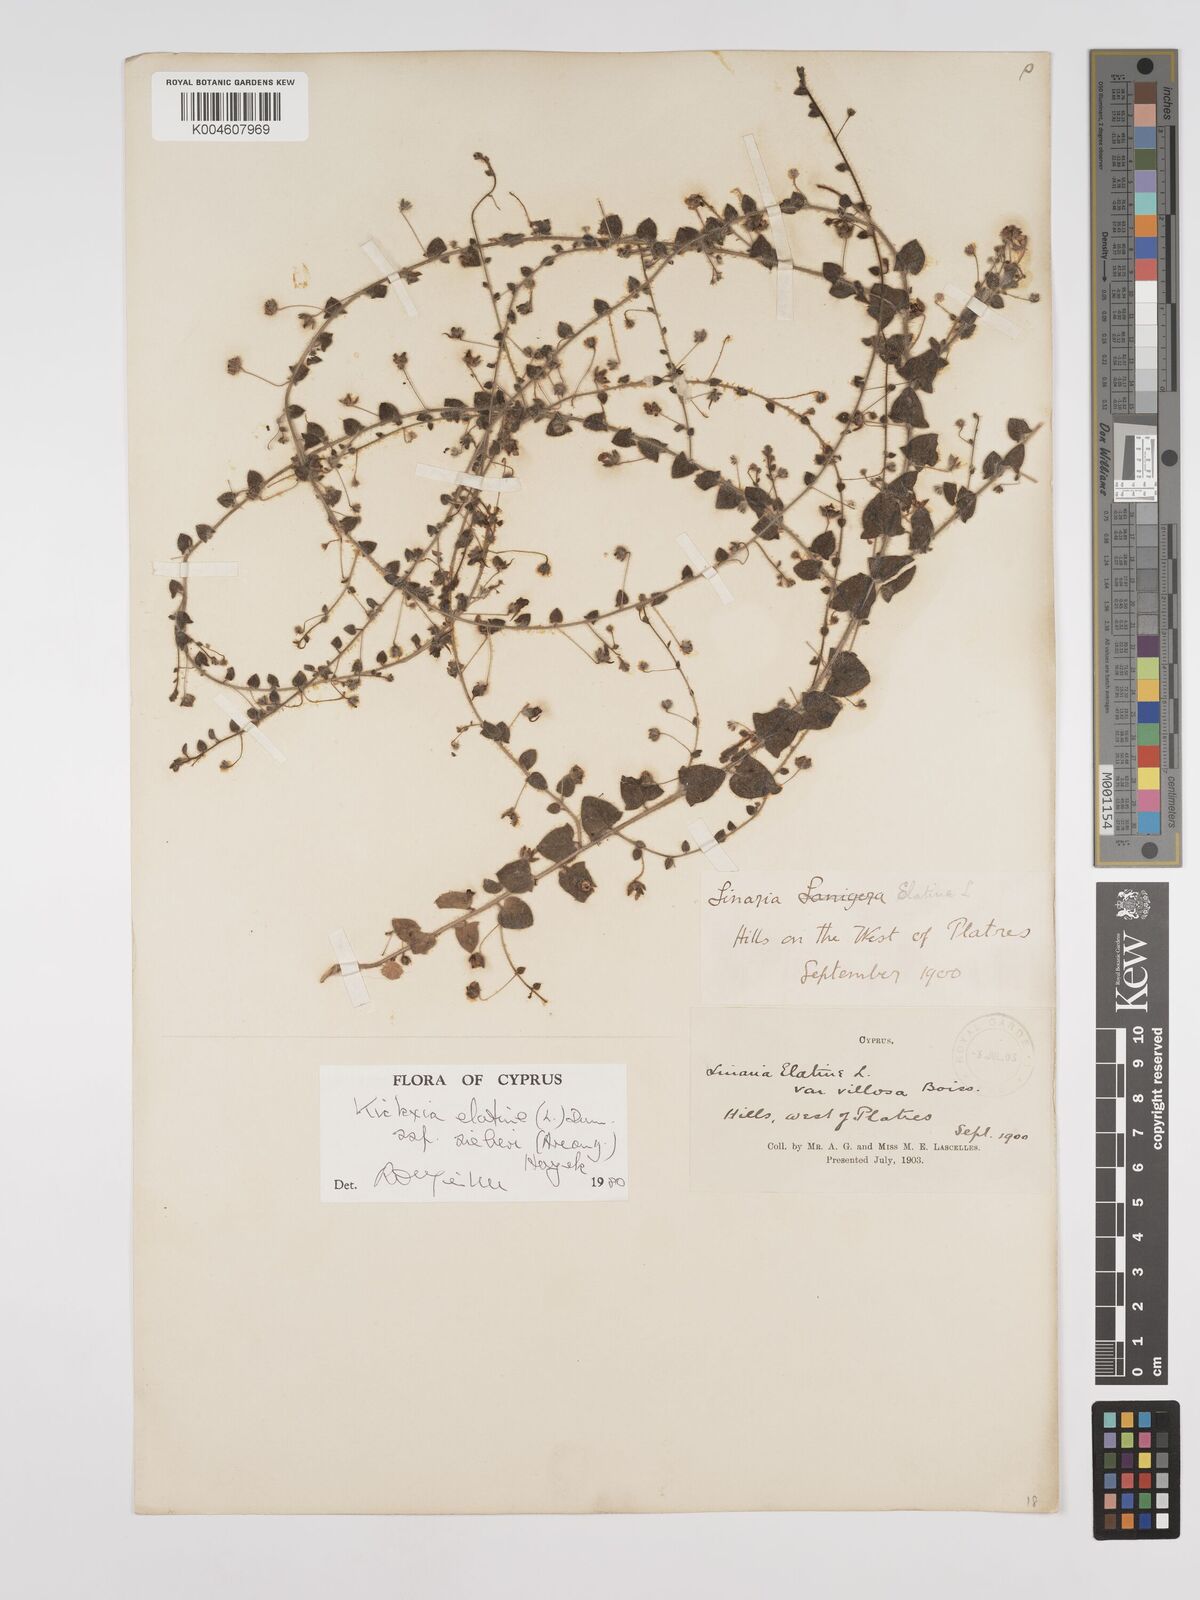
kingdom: Plantae
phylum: Tracheophyta
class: Magnoliopsida
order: Lamiales
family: Plantaginaceae
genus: Kickxia
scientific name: Kickxia elatine
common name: Sharp-leaved fluellen
